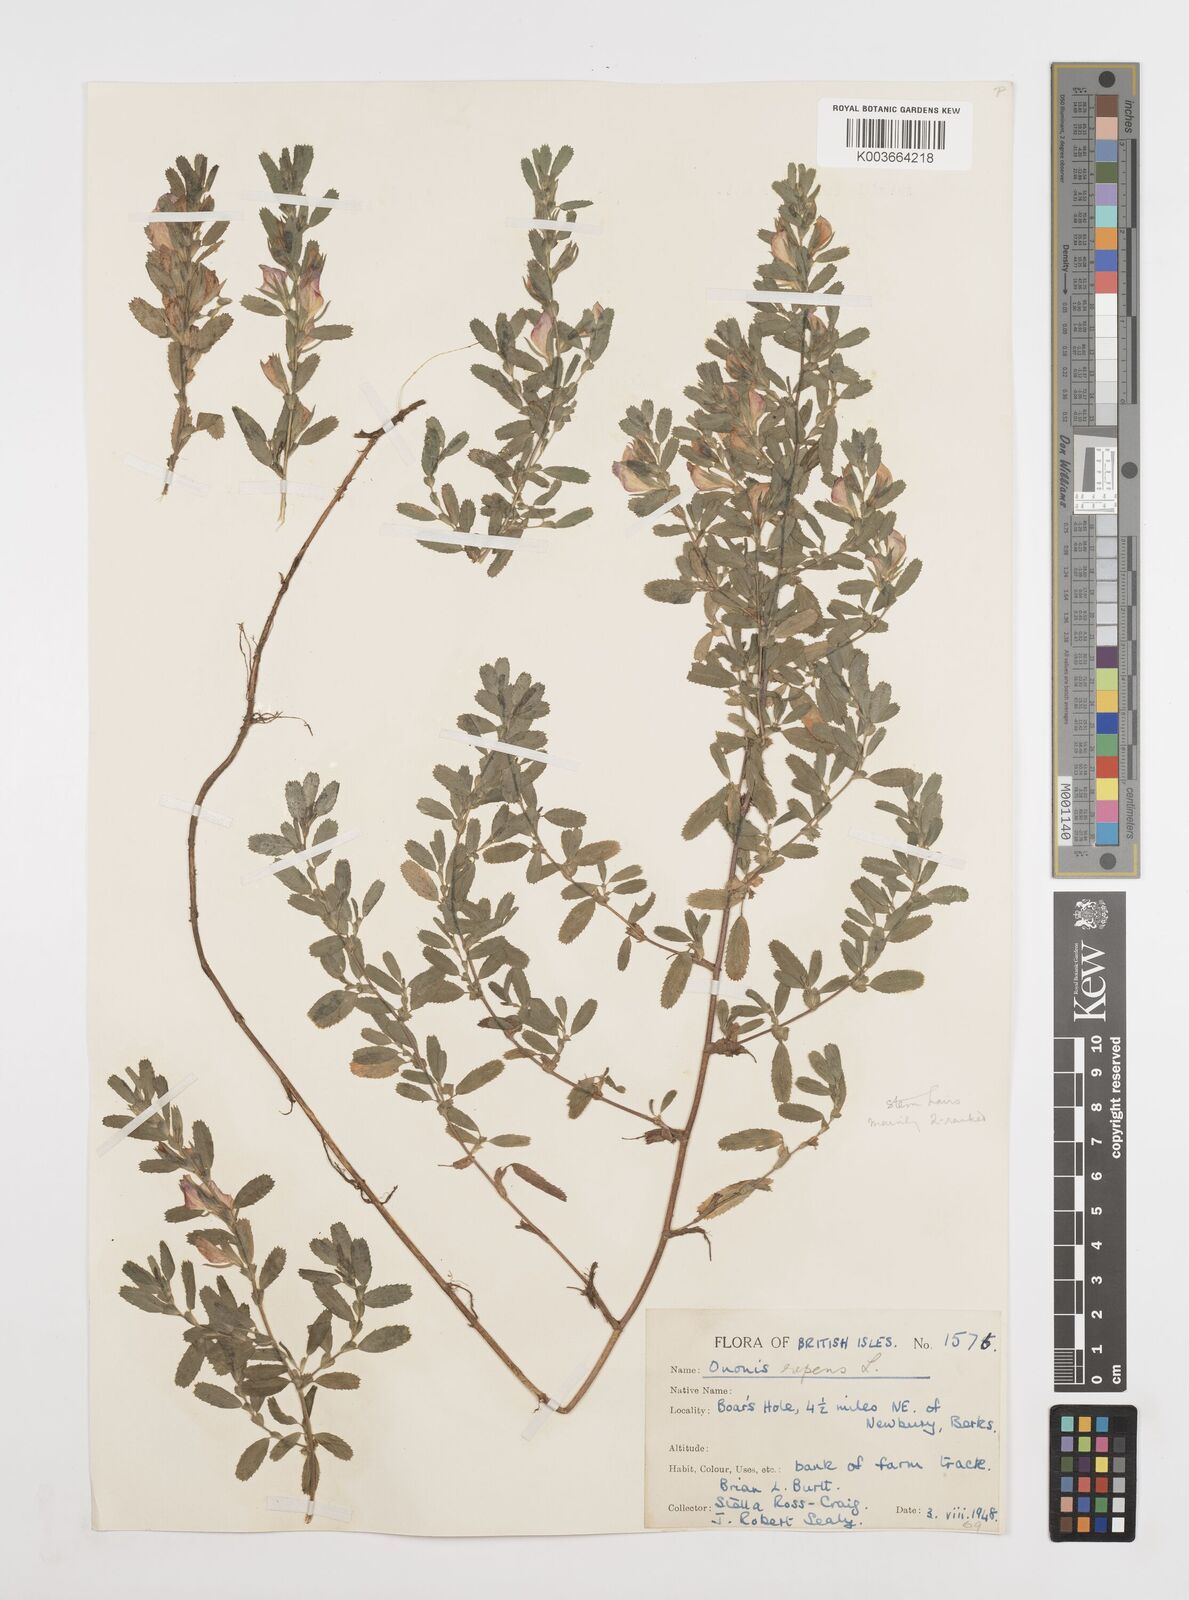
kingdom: Plantae
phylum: Tracheophyta
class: Magnoliopsida
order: Fabales
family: Fabaceae
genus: Ononis
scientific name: Ononis spinosa
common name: Spiny restharrow
